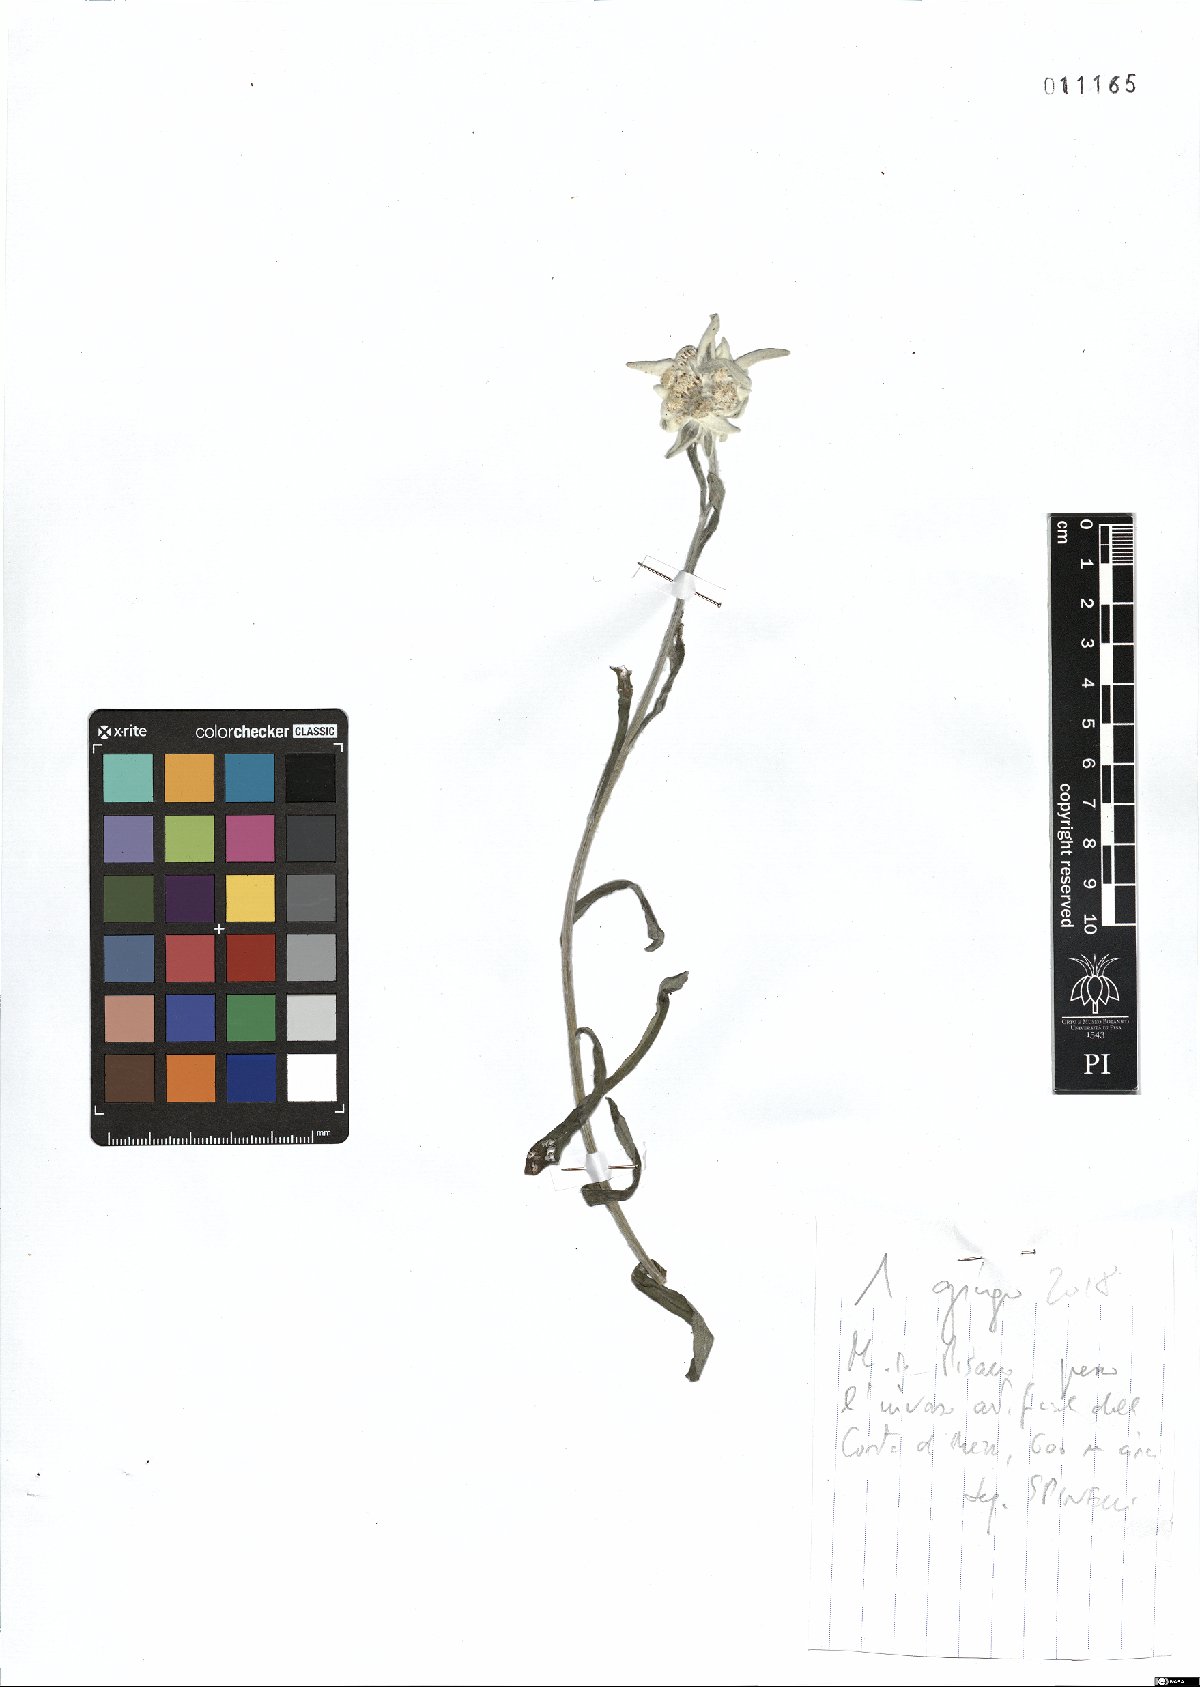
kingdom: Plantae
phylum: Tracheophyta
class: Magnoliopsida
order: Asterales
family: Asteraceae
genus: Leontopodium
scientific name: Leontopodium nivale
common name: Edelweiss
